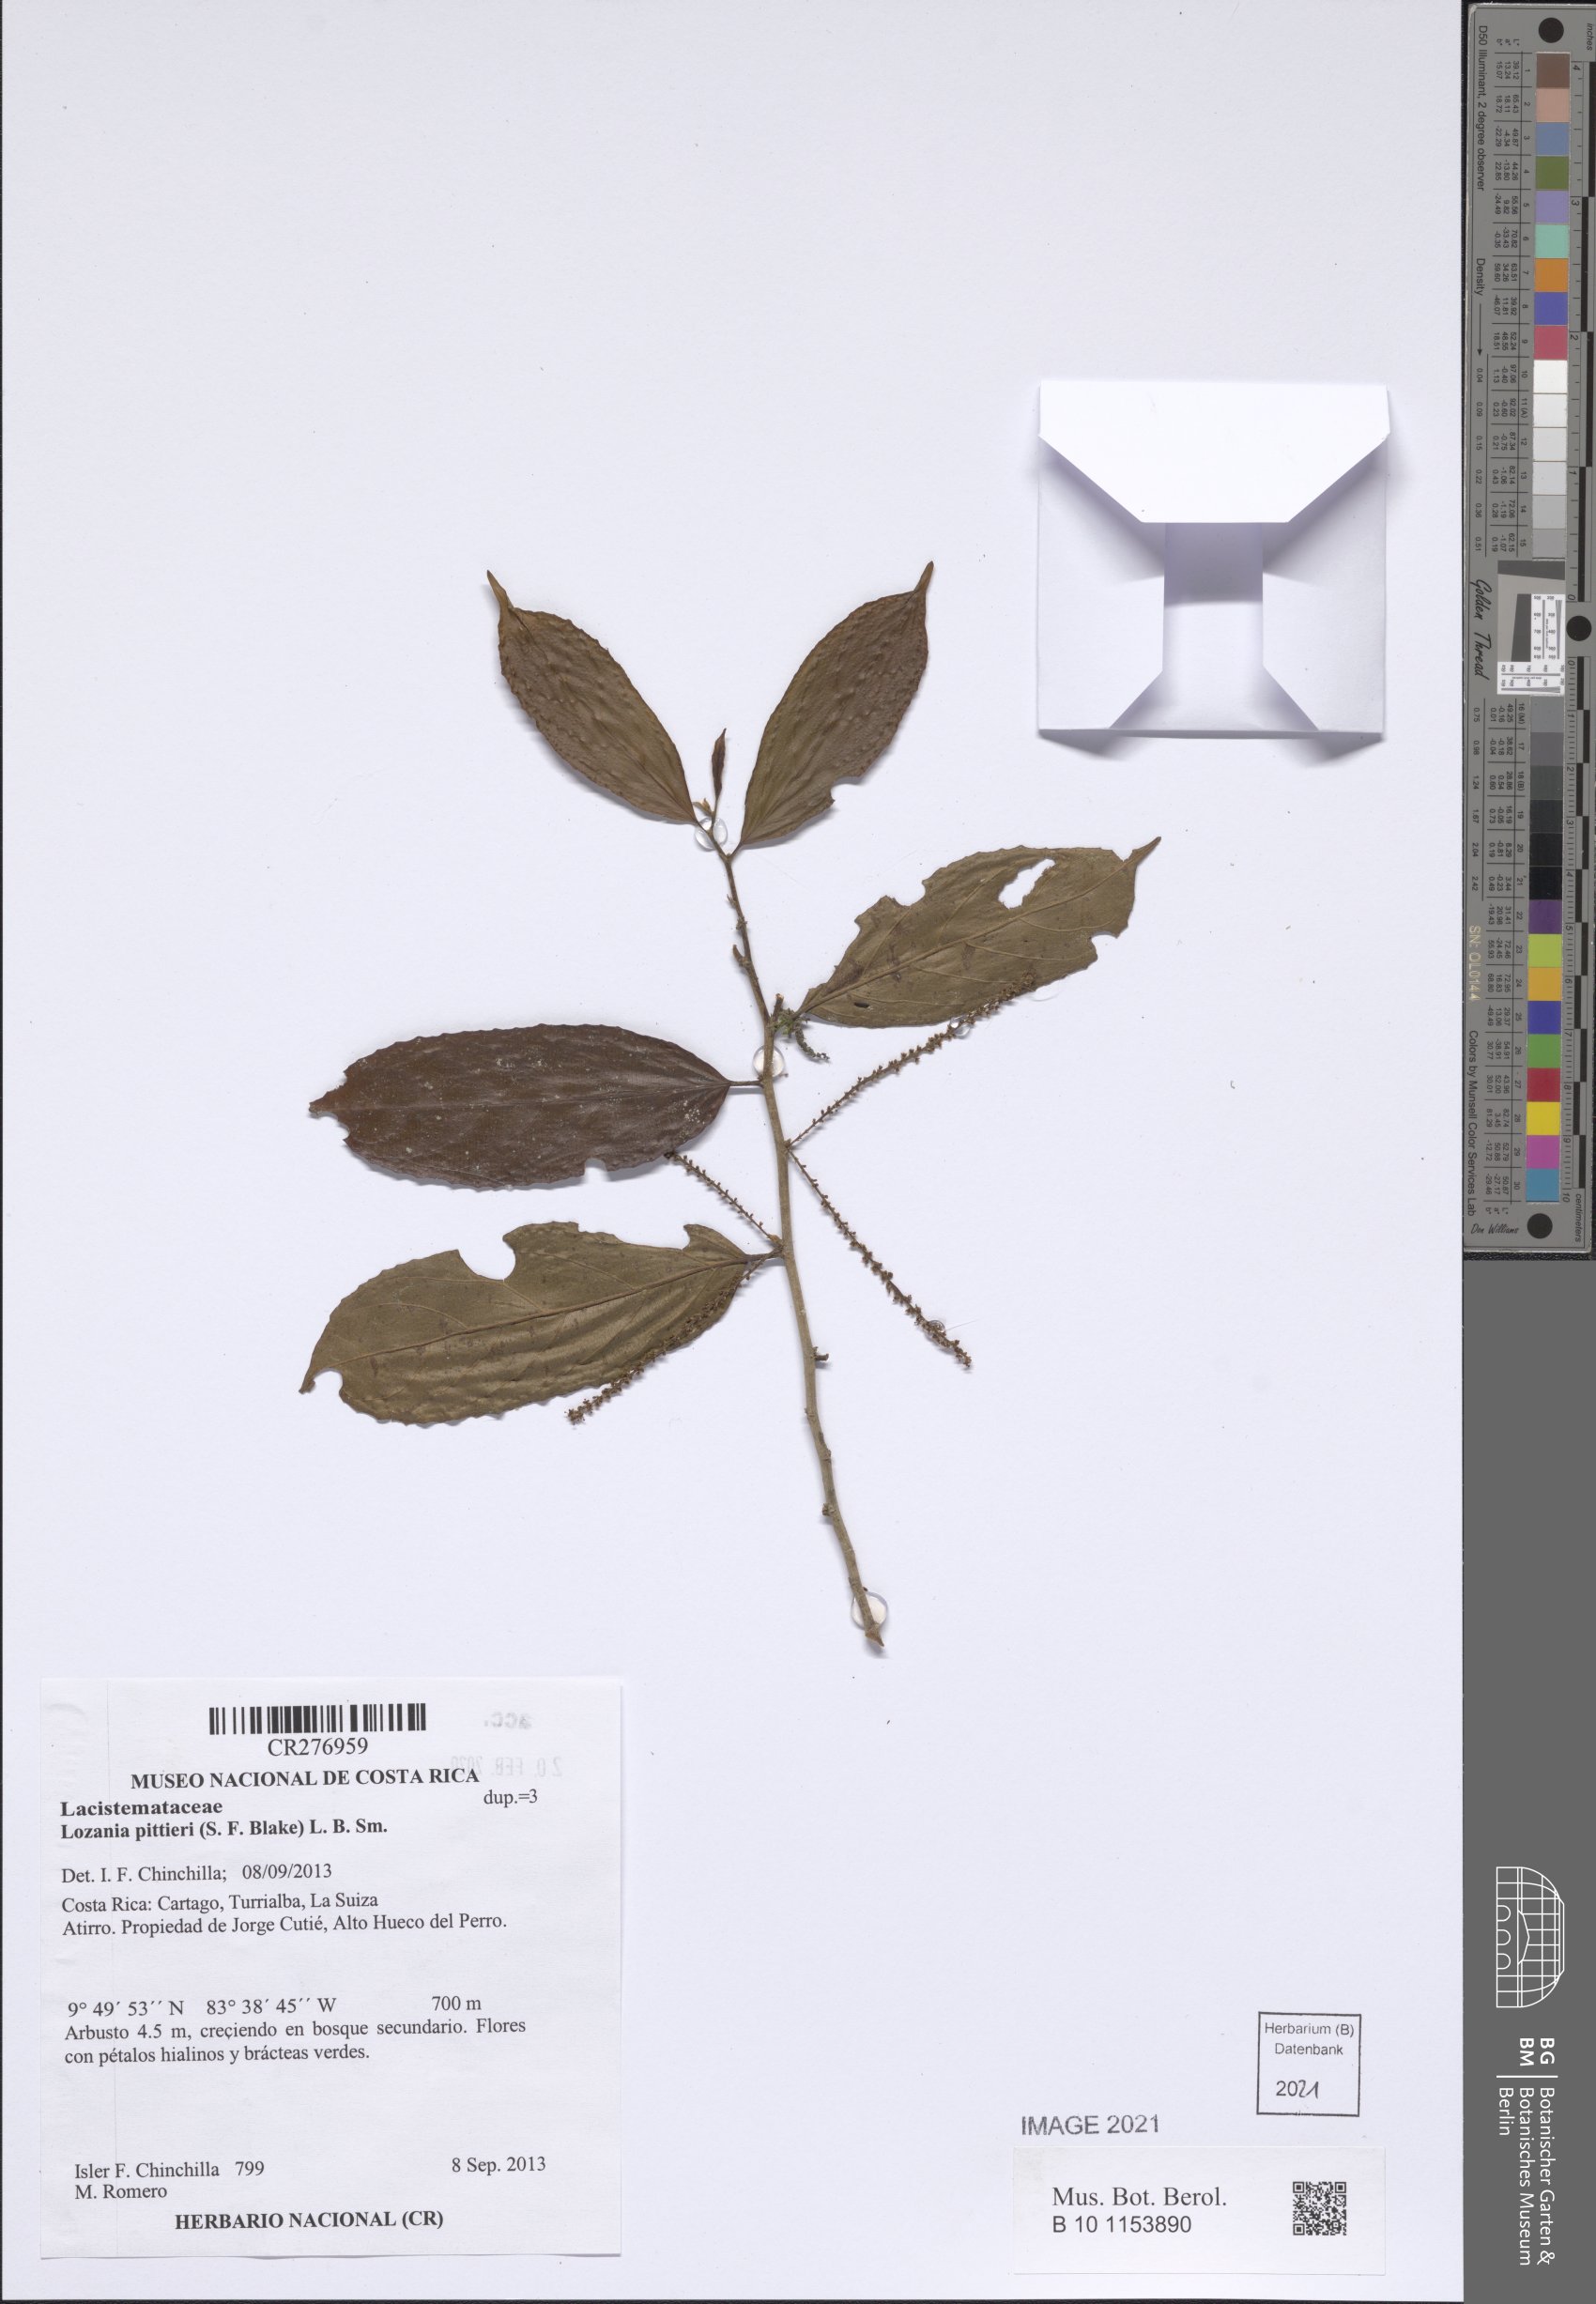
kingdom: Plantae
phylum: Tracheophyta
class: Magnoliopsida
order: Malpighiales
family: Lacistemataceae
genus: Lozania
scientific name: Lozania pittieri
